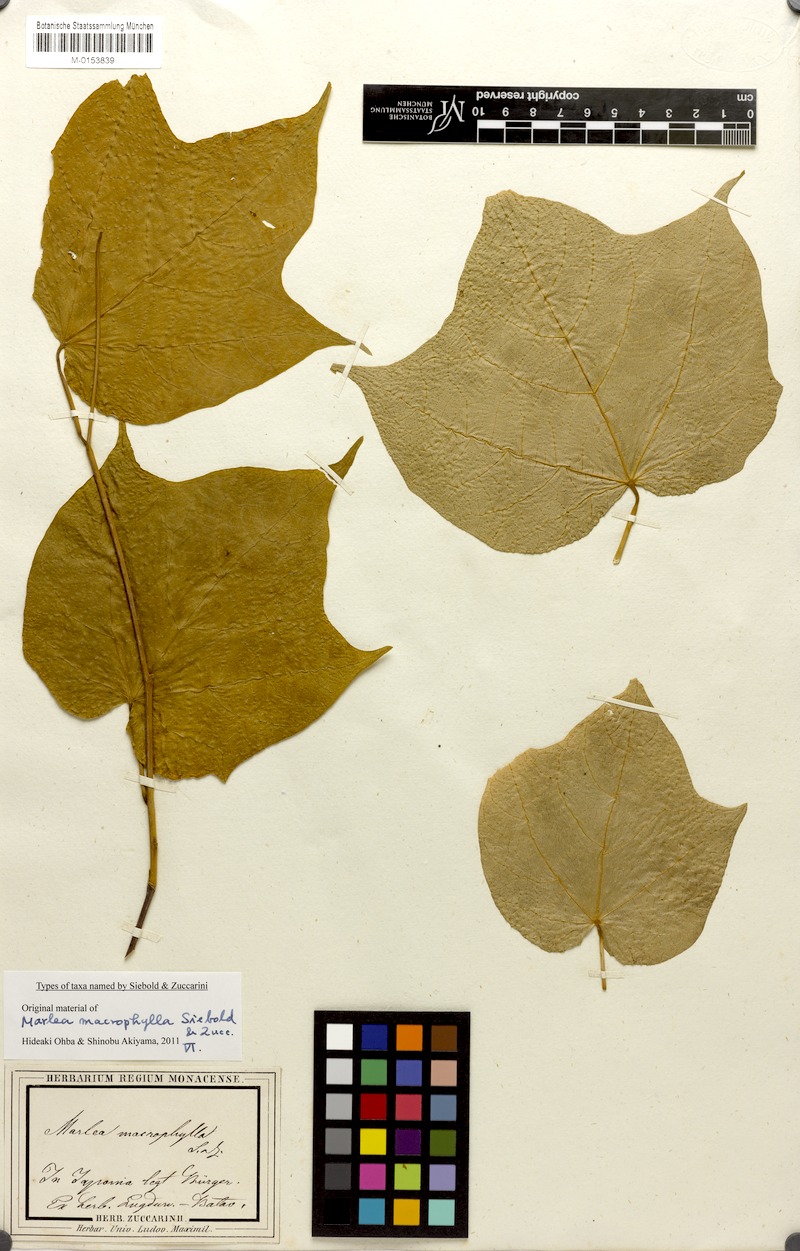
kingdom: Plantae
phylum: Tracheophyta
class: Magnoliopsida
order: Cornales
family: Cornaceae
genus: Alangium
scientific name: Alangium platanifolium
